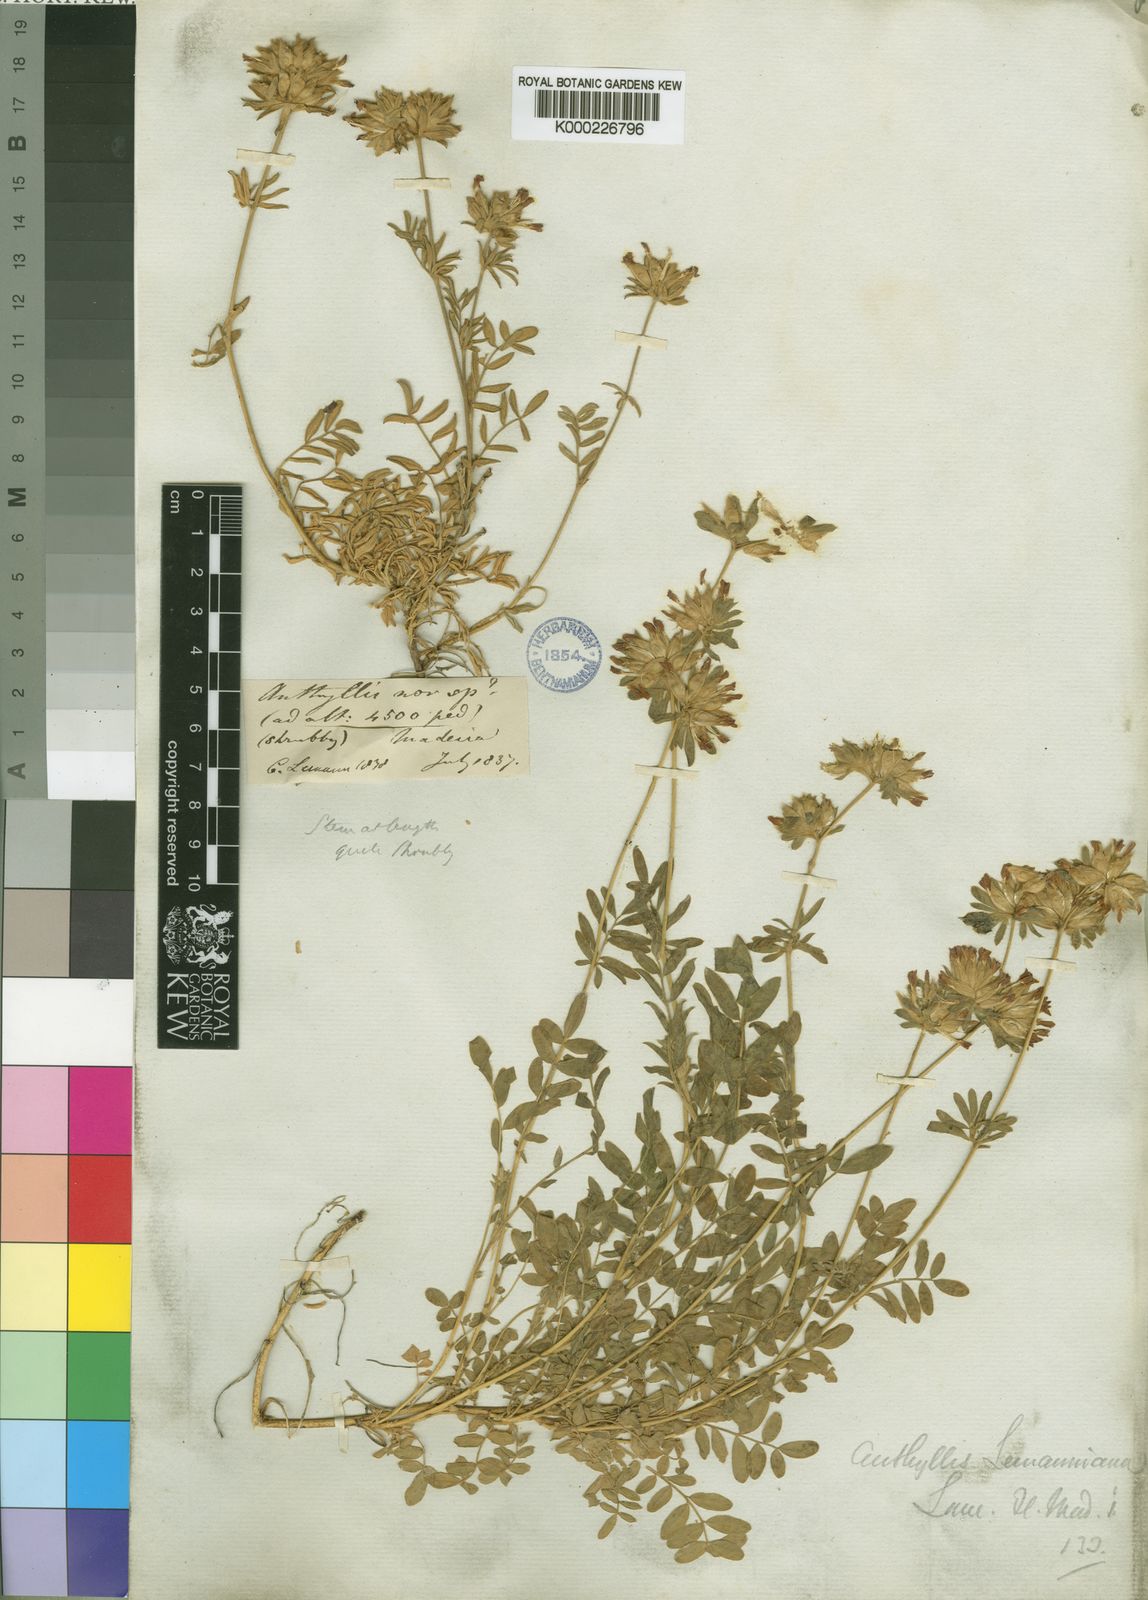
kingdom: Plantae
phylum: Tracheophyta
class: Magnoliopsida
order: Fabales
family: Fabaceae
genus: Anthyllis
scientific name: Anthyllis lemanniana
